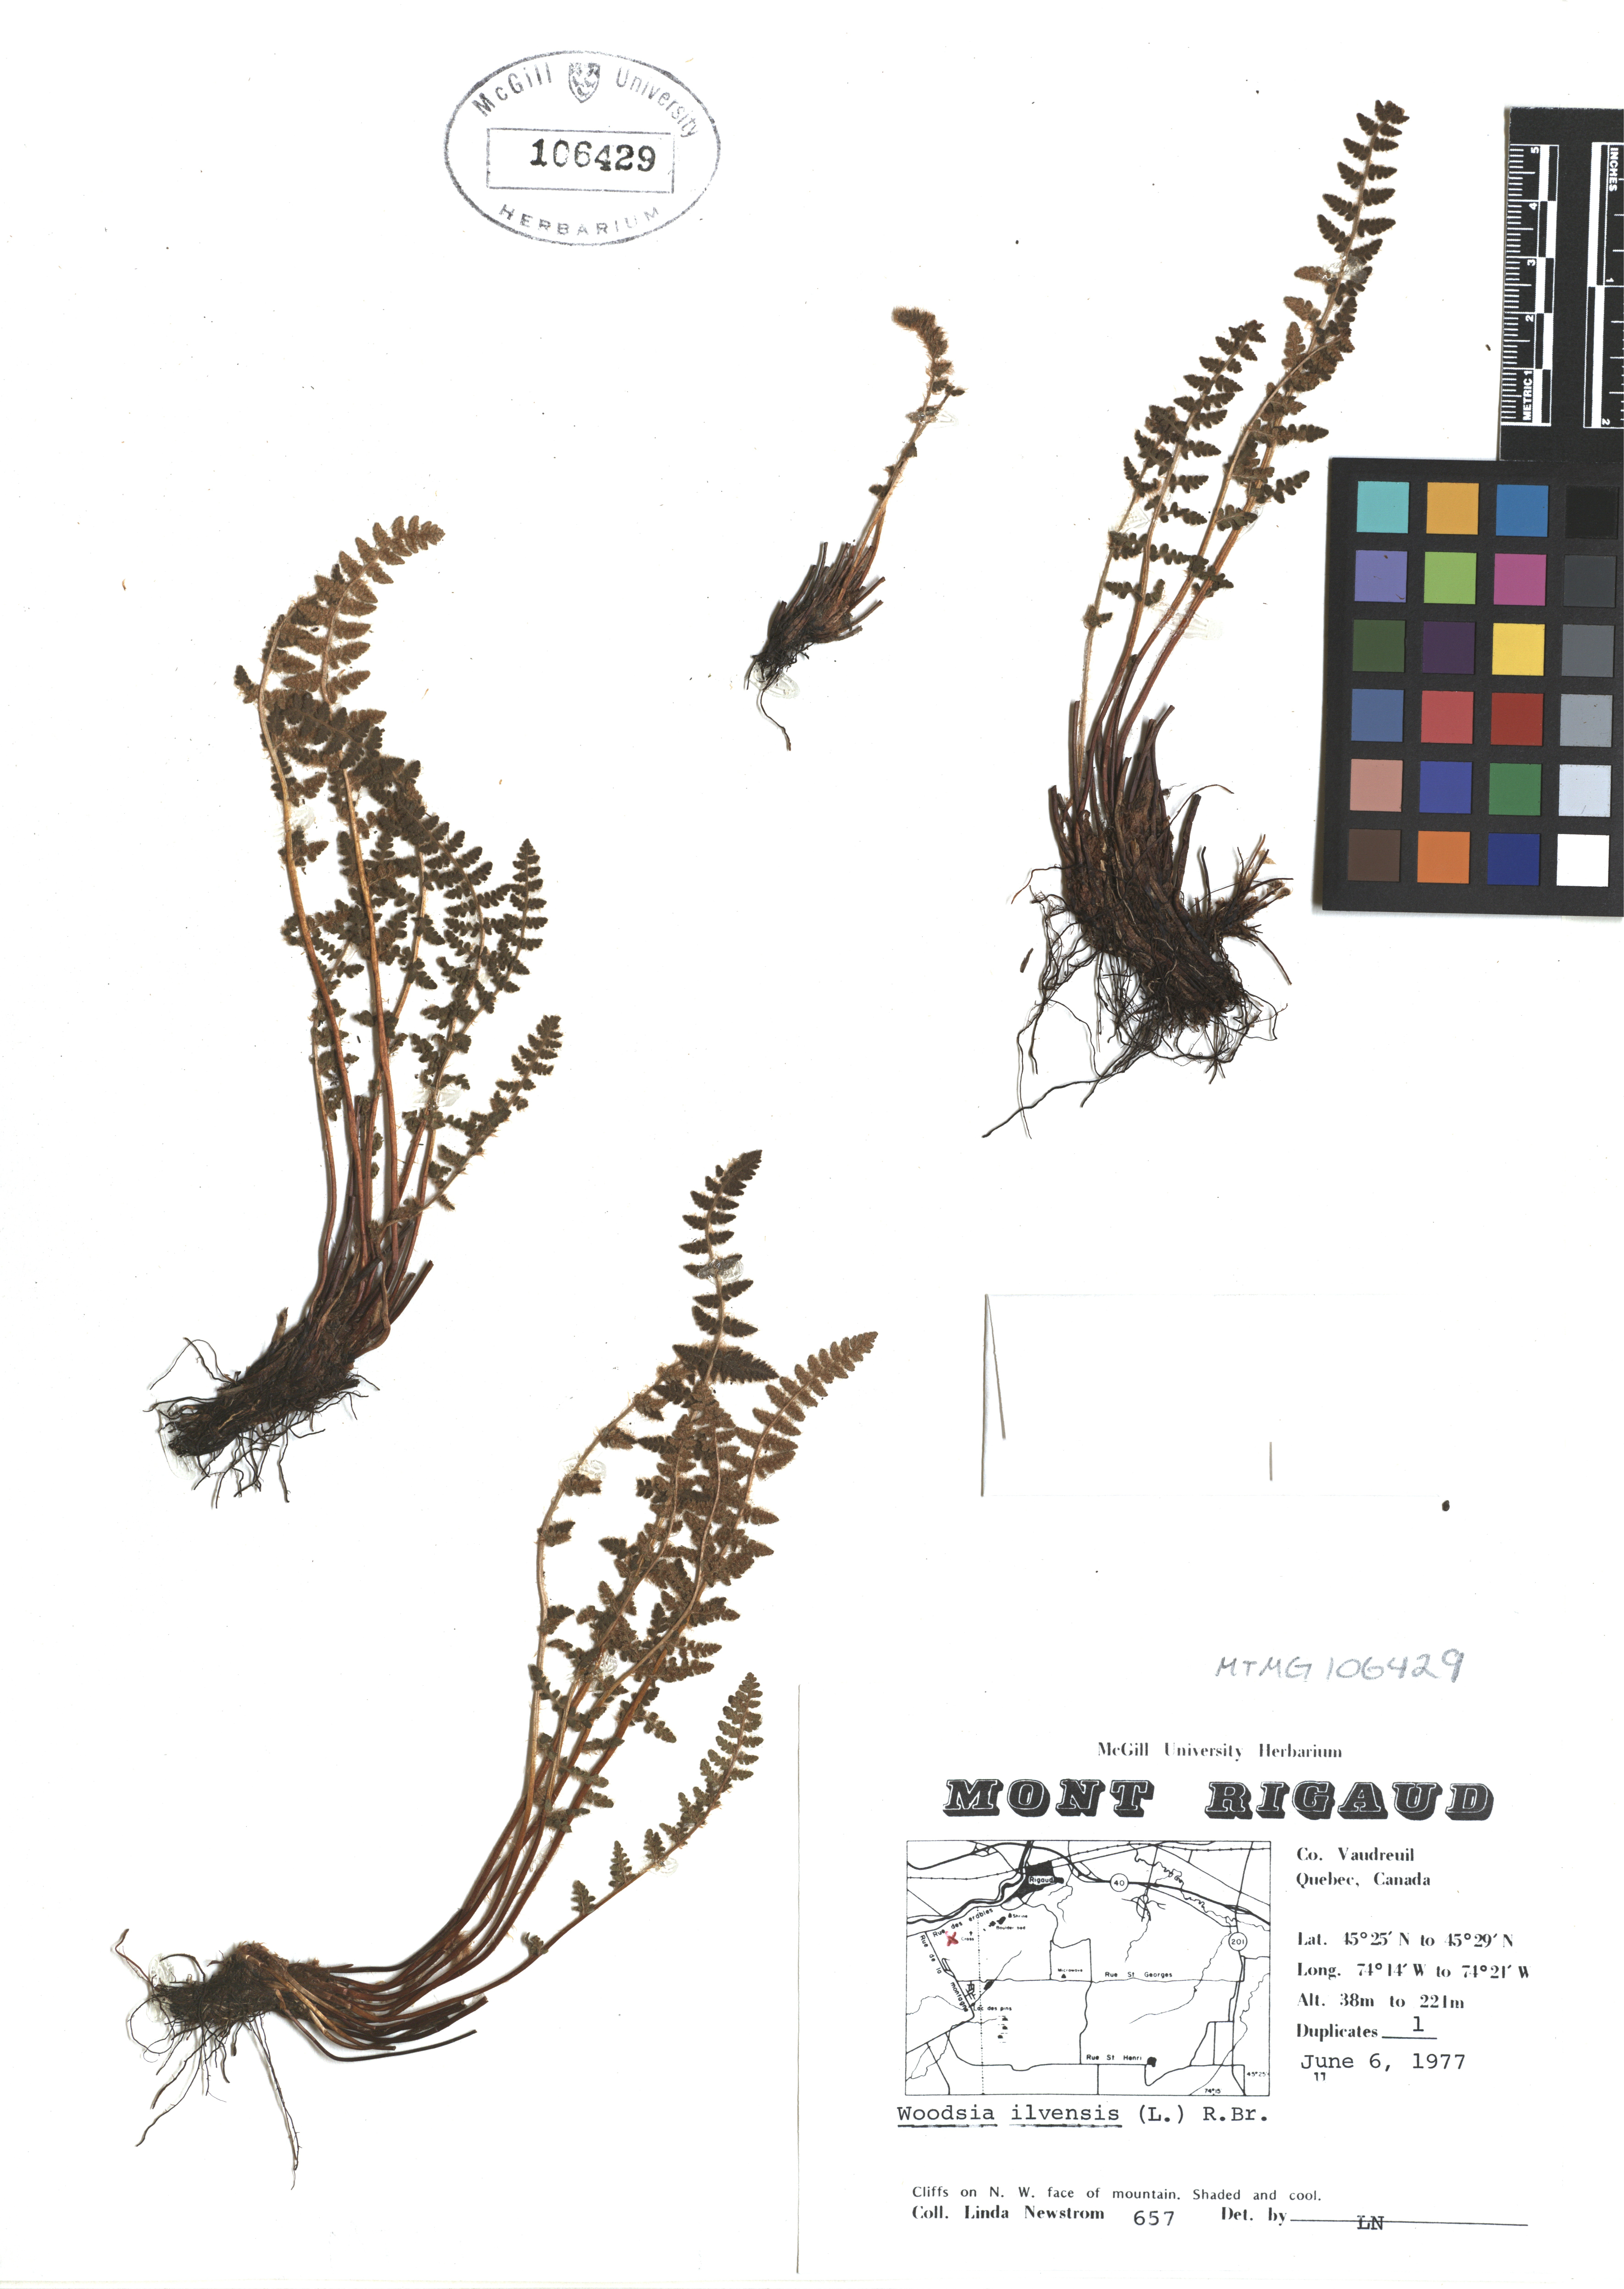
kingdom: Plantae
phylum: Tracheophyta
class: Polypodiopsida
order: Polypodiales
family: Woodsiaceae
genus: Woodsia
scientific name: Woodsia ilvensis
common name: Fragrant woodsia
